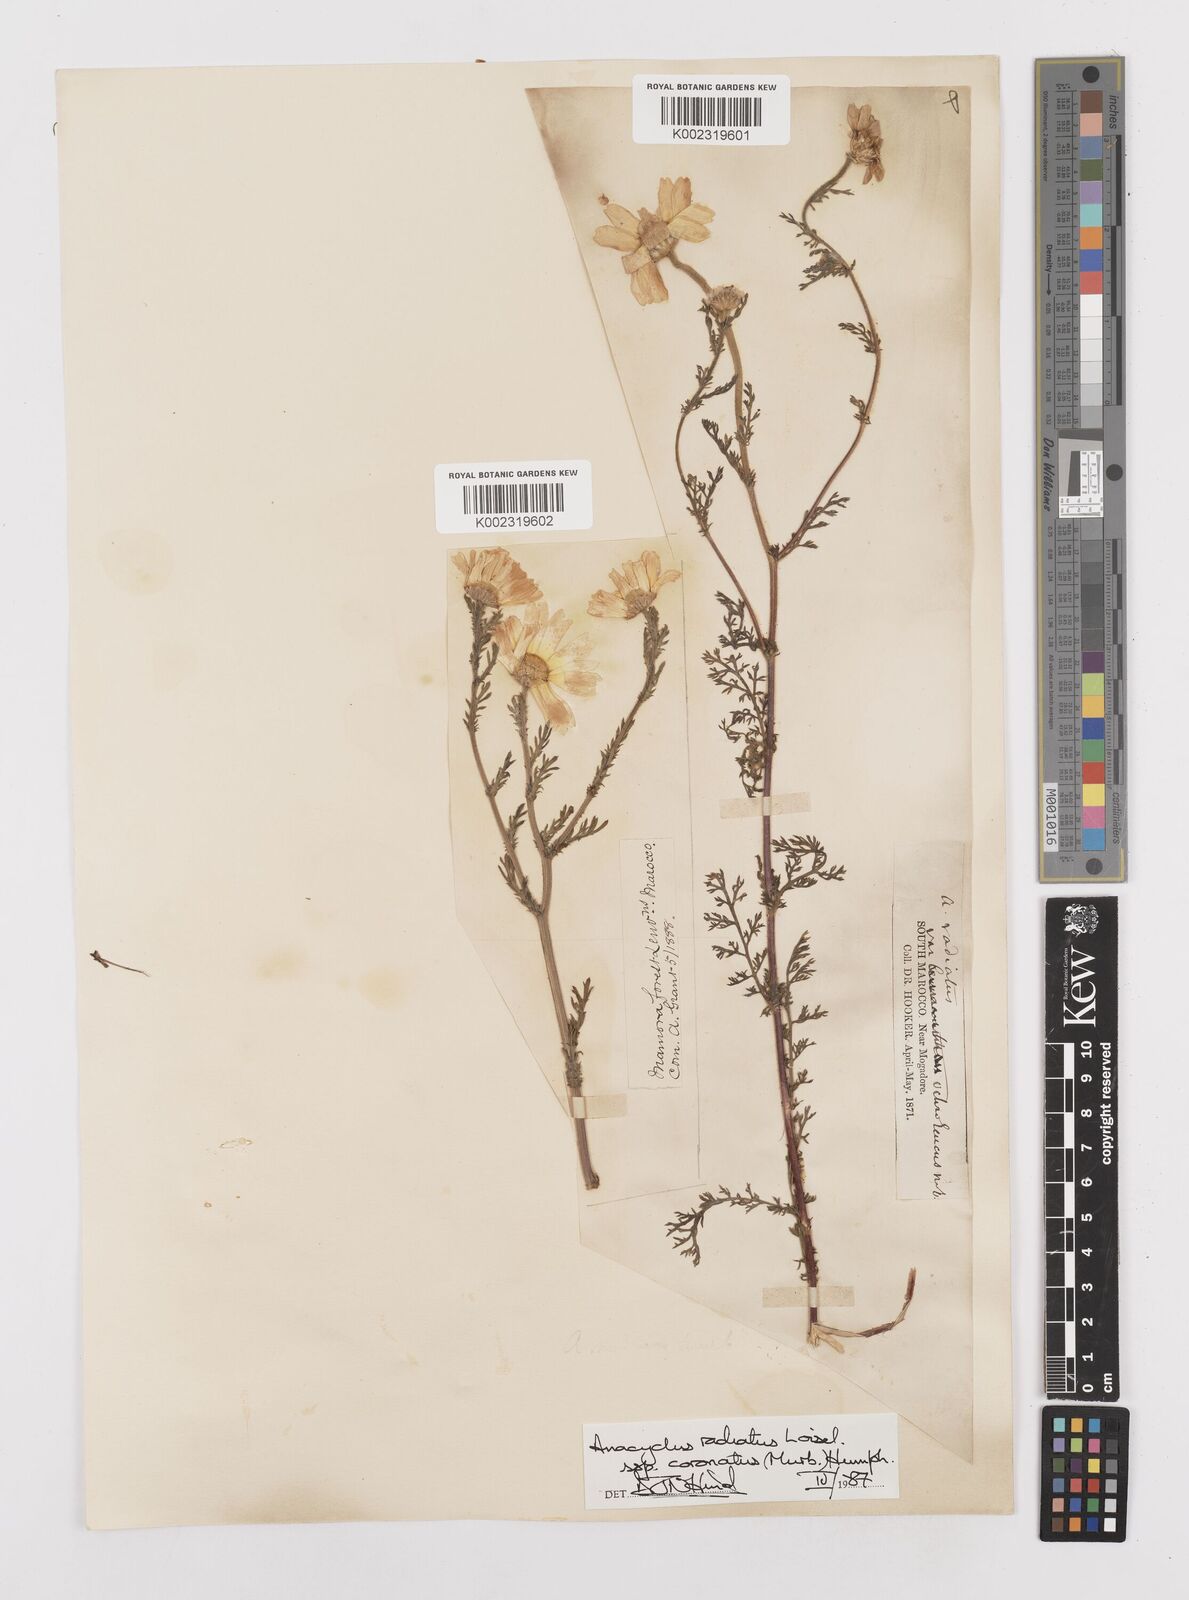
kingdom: Plantae
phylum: Tracheophyta
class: Magnoliopsida
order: Asterales
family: Asteraceae
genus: Anacyclus
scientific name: Anacyclus radiatus
